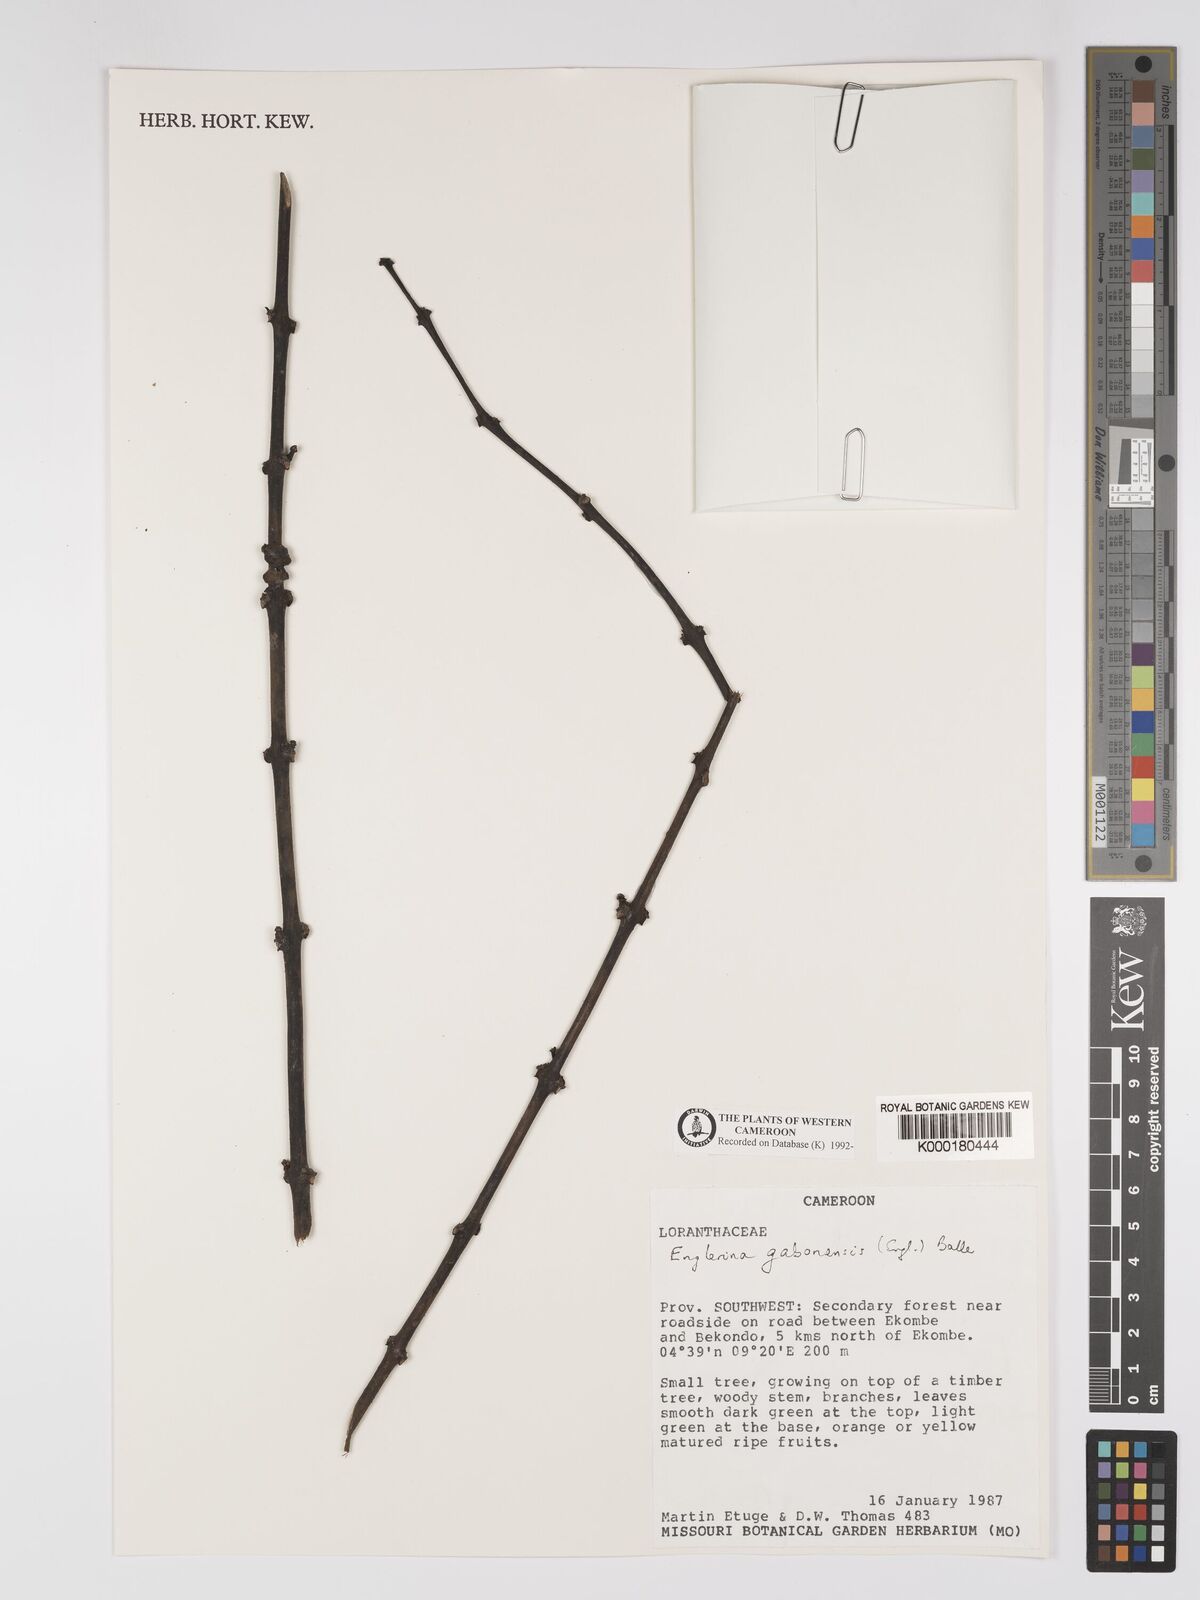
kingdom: Plantae
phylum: Tracheophyta
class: Magnoliopsida
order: Santalales
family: Loranthaceae
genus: Englerina
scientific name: Englerina gabonensis
